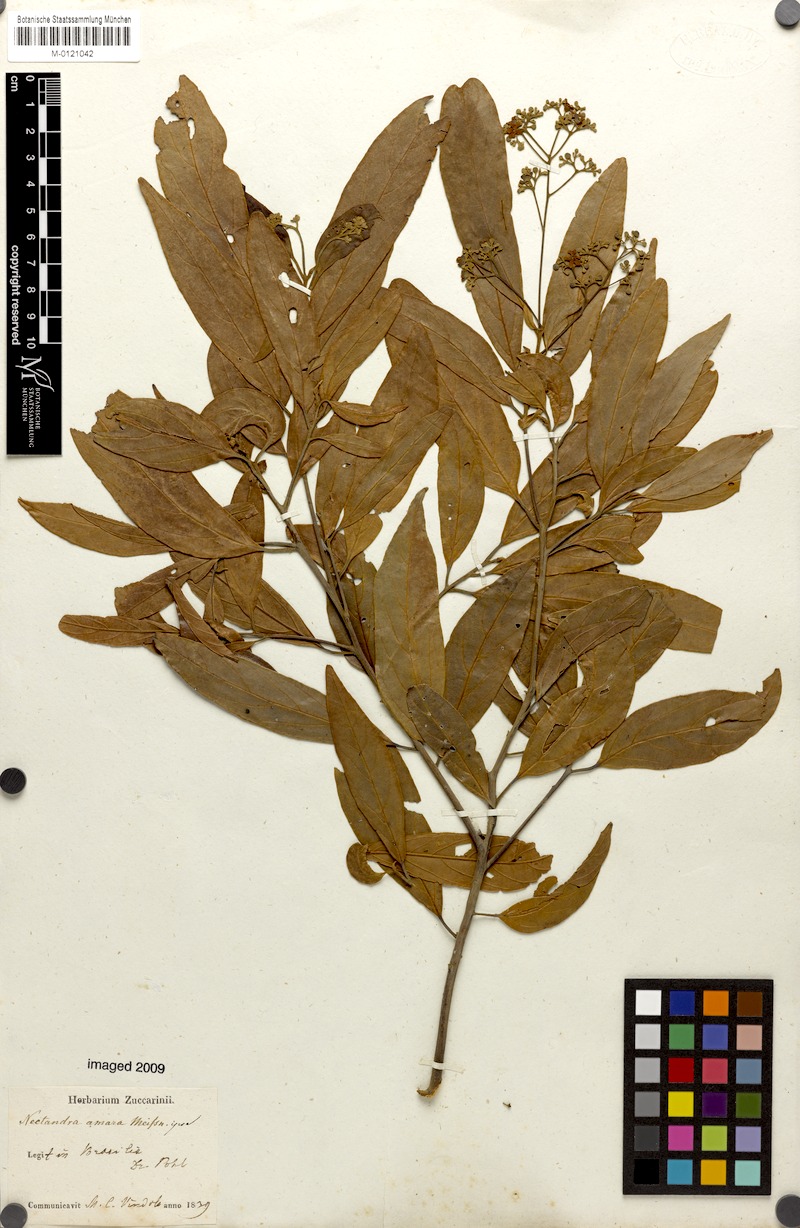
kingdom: Plantae
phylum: Tracheophyta
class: Magnoliopsida
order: Laurales
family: Lauraceae
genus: Nectandra
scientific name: Nectandra puberula
